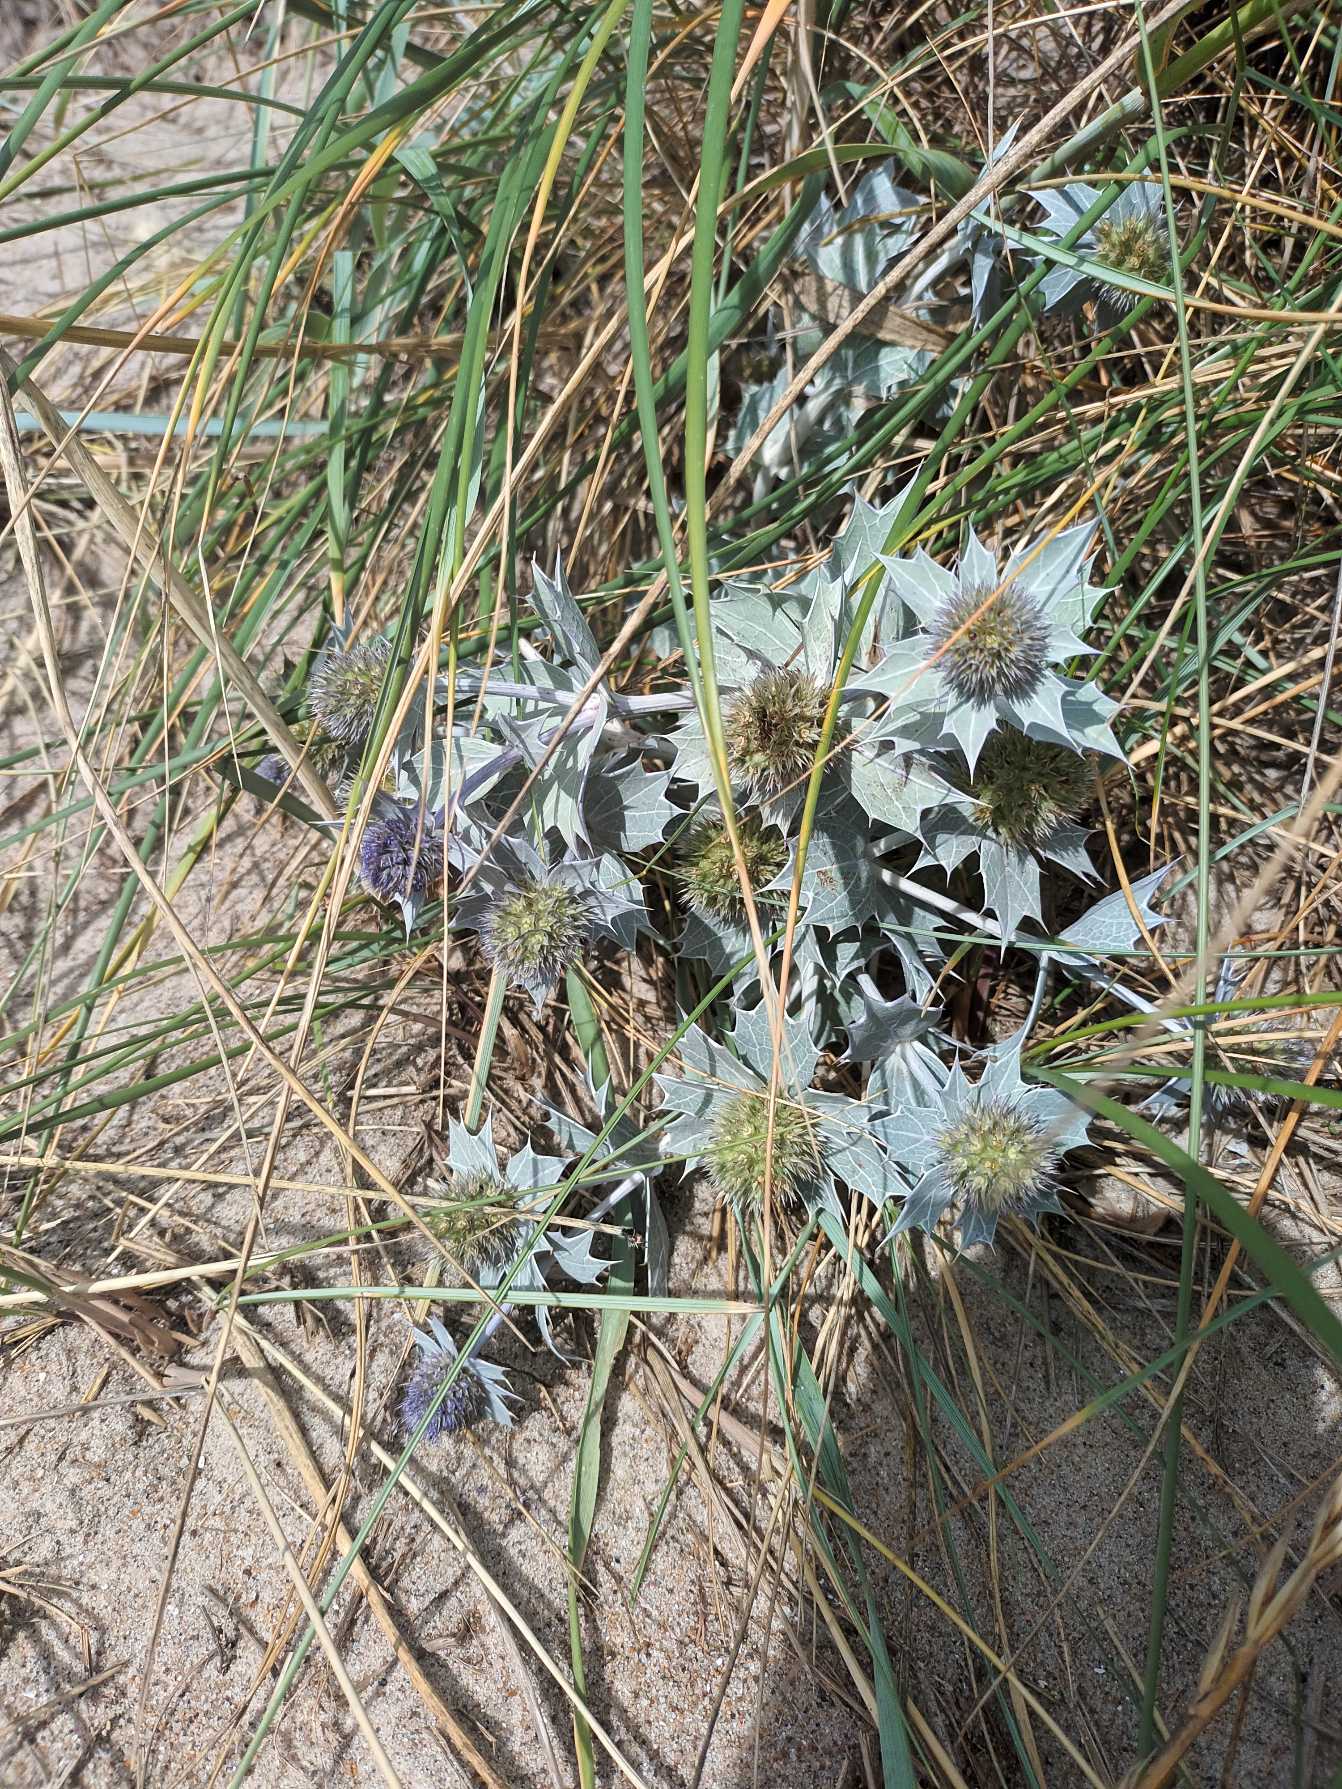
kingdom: Plantae
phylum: Tracheophyta
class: Magnoliopsida
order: Apiales
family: Apiaceae
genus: Eryngium
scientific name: Eryngium maritimum
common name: Strand-mandstro
